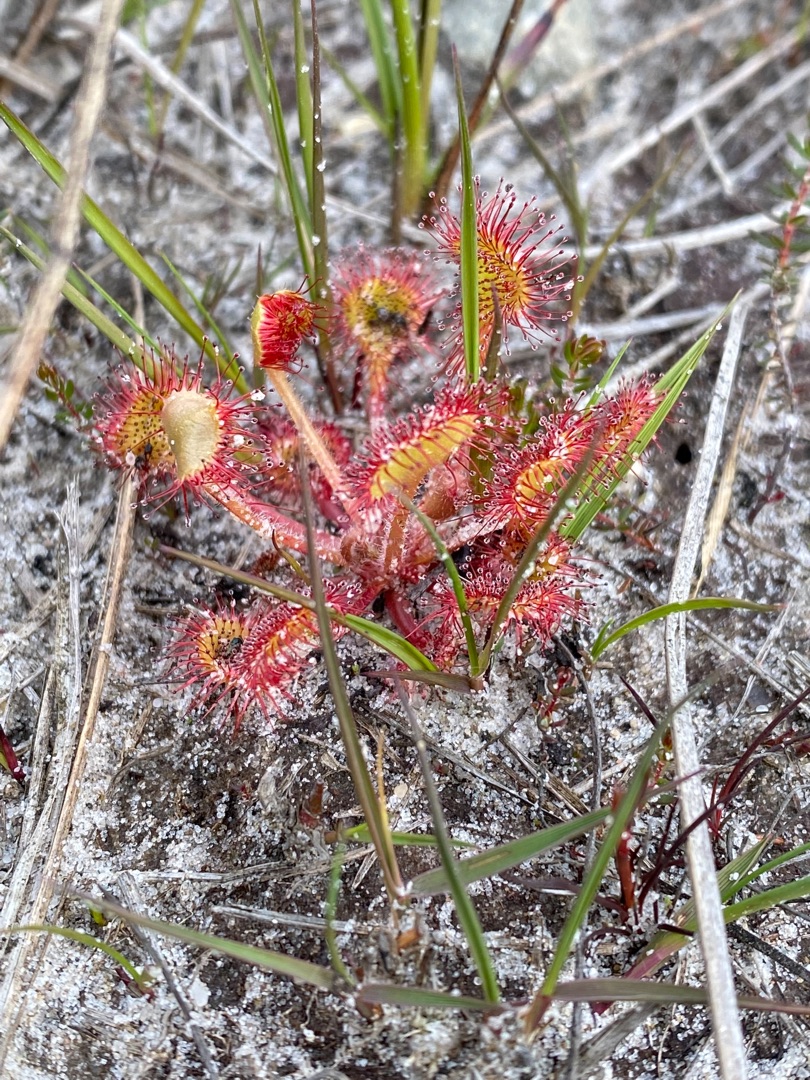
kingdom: Plantae
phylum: Tracheophyta
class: Magnoliopsida
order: Caryophyllales
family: Droseraceae
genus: Drosera
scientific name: Drosera rotundifolia
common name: Rundbladet soldug
